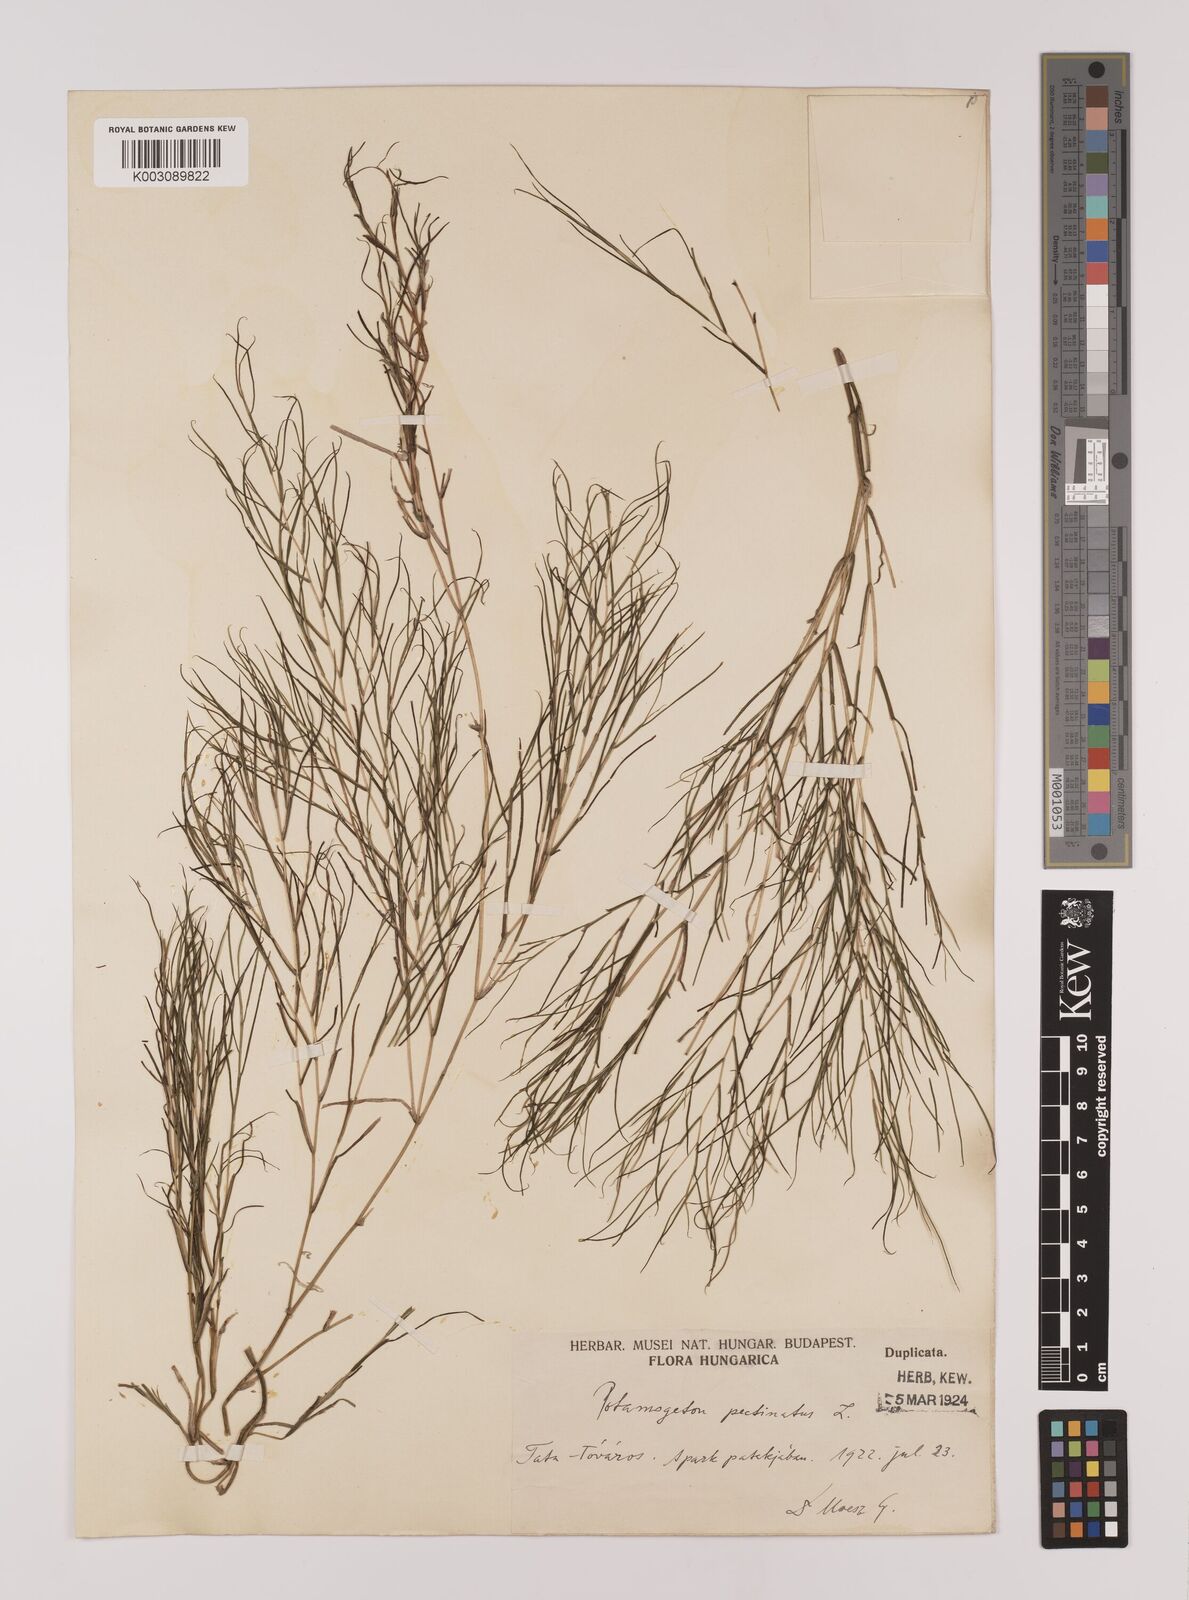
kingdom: Plantae
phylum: Tracheophyta
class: Liliopsida
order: Alismatales
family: Potamogetonaceae
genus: Stuckenia
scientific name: Stuckenia pectinata
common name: Sago pondweed
